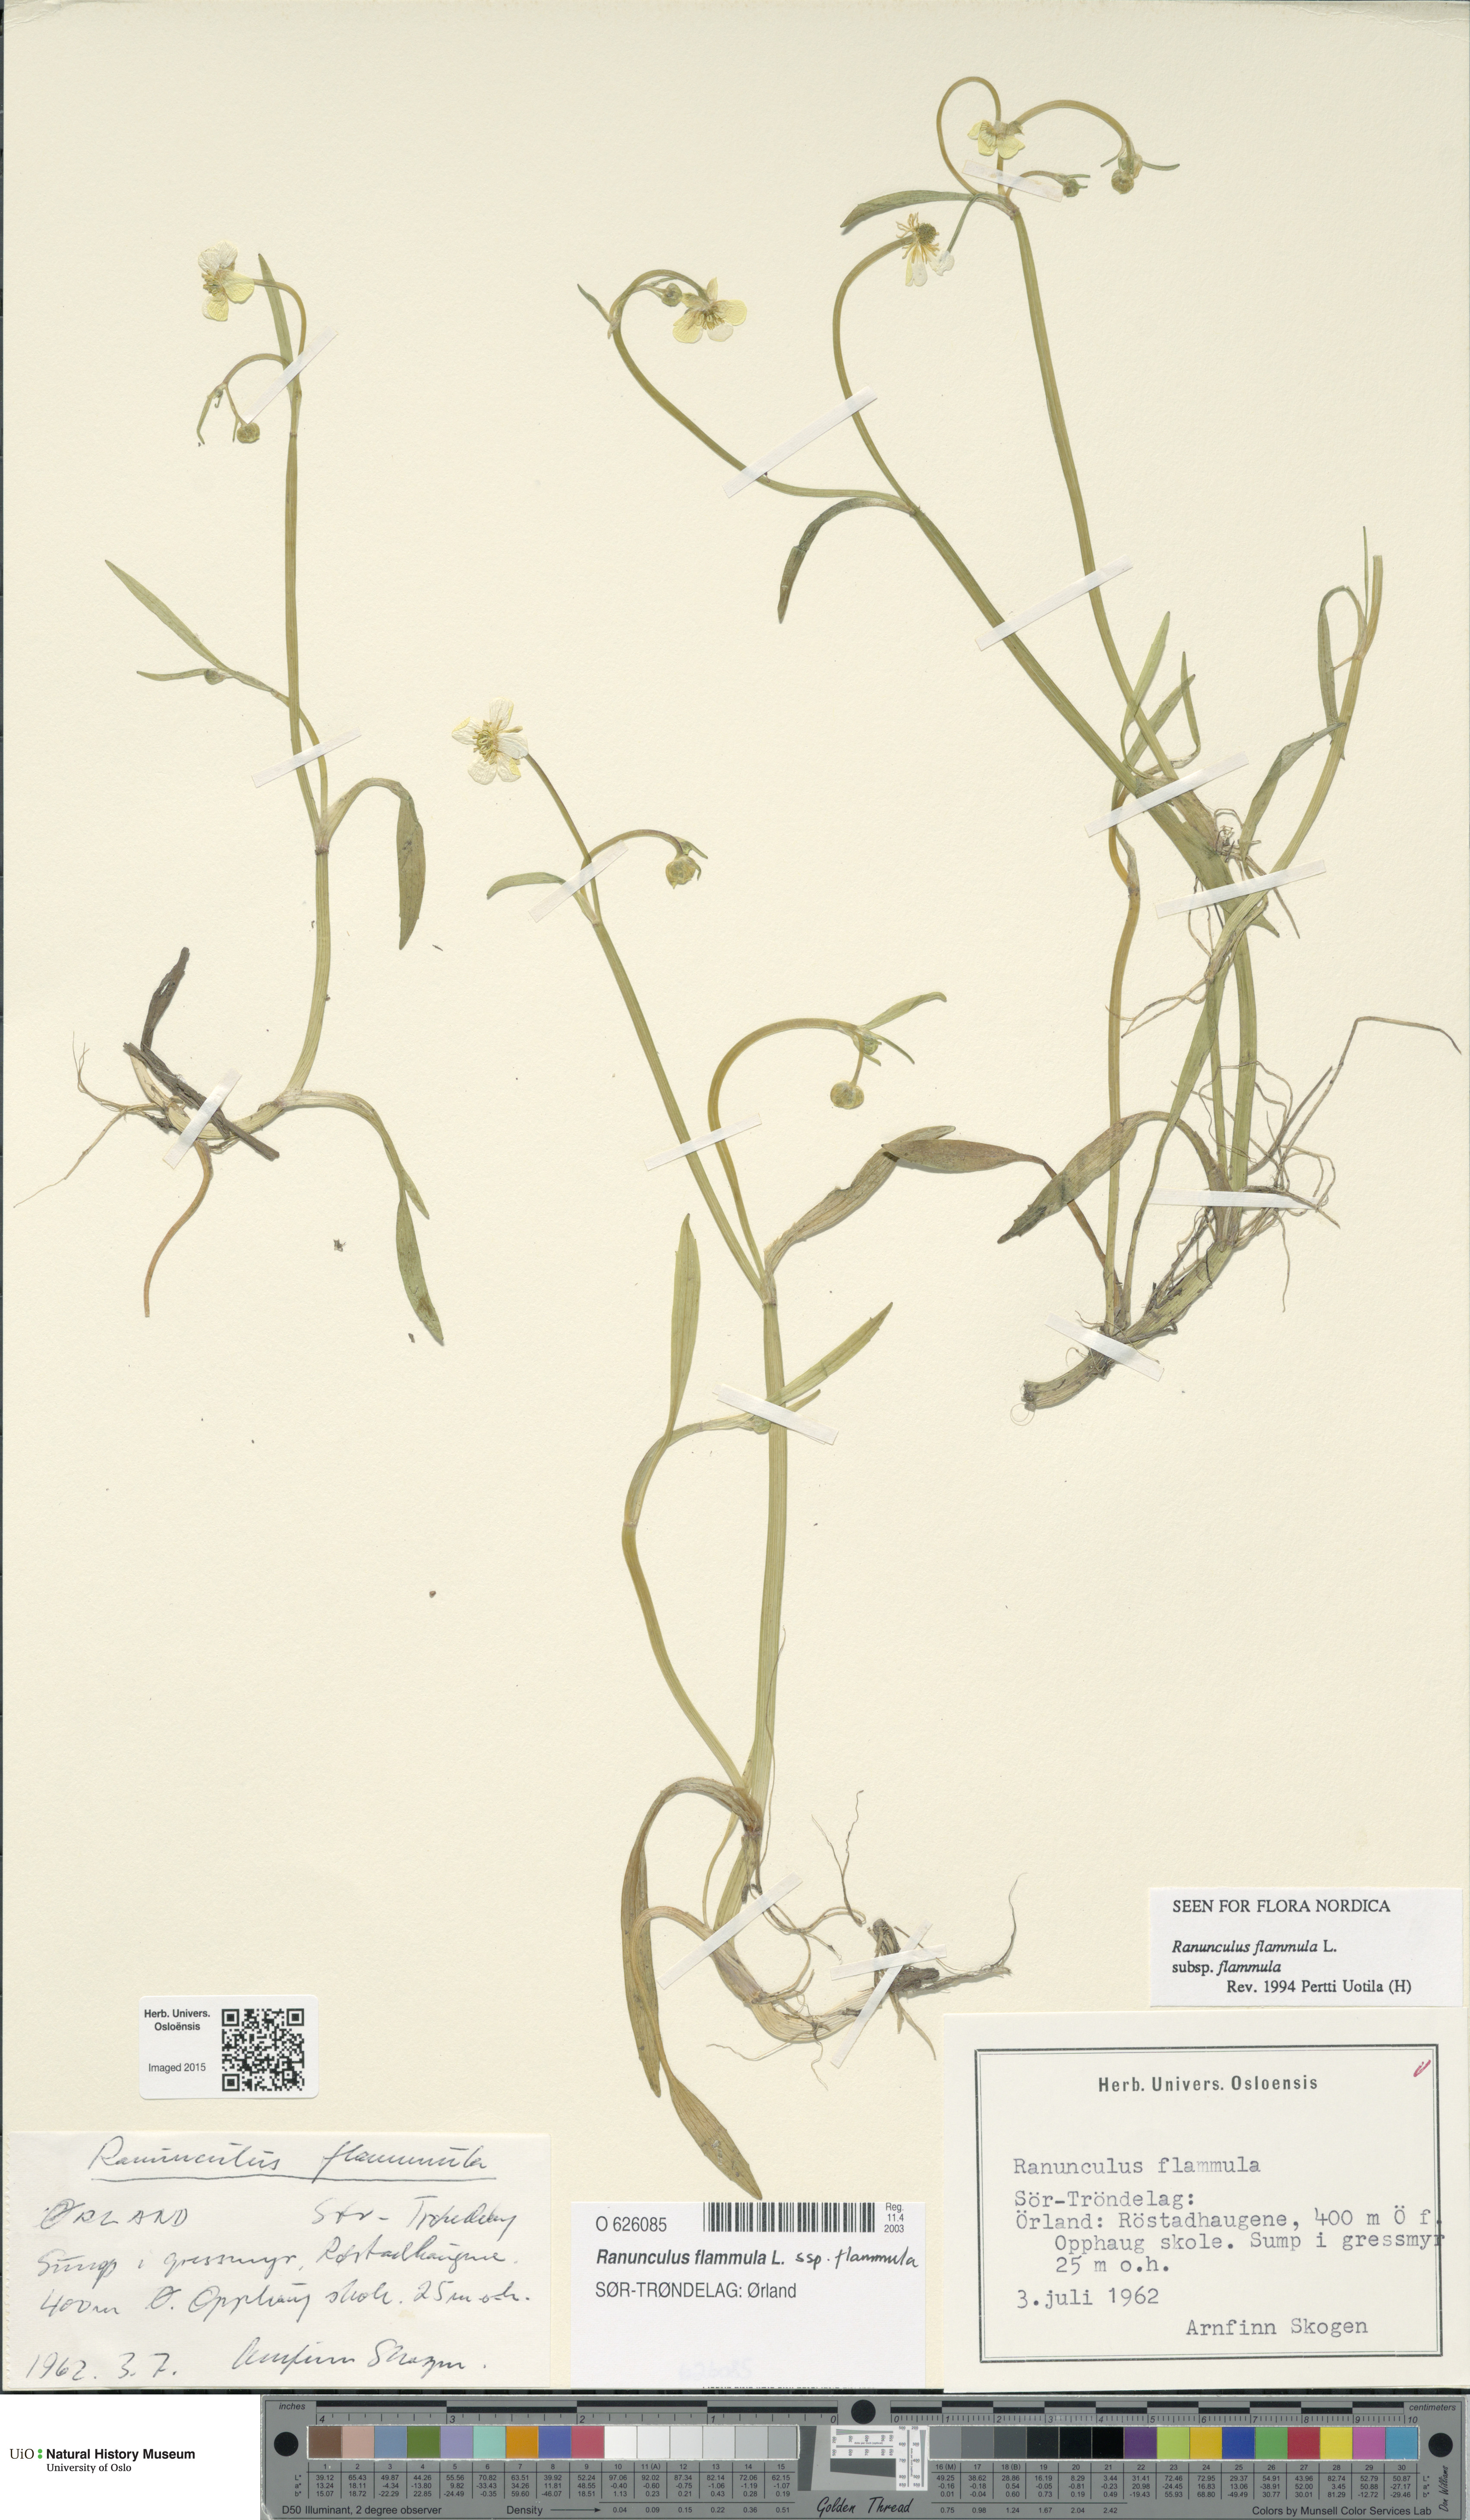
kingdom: Plantae
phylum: Tracheophyta
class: Magnoliopsida
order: Ranunculales
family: Ranunculaceae
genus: Ranunculus
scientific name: Ranunculus flammula
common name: Lesser spearwort
